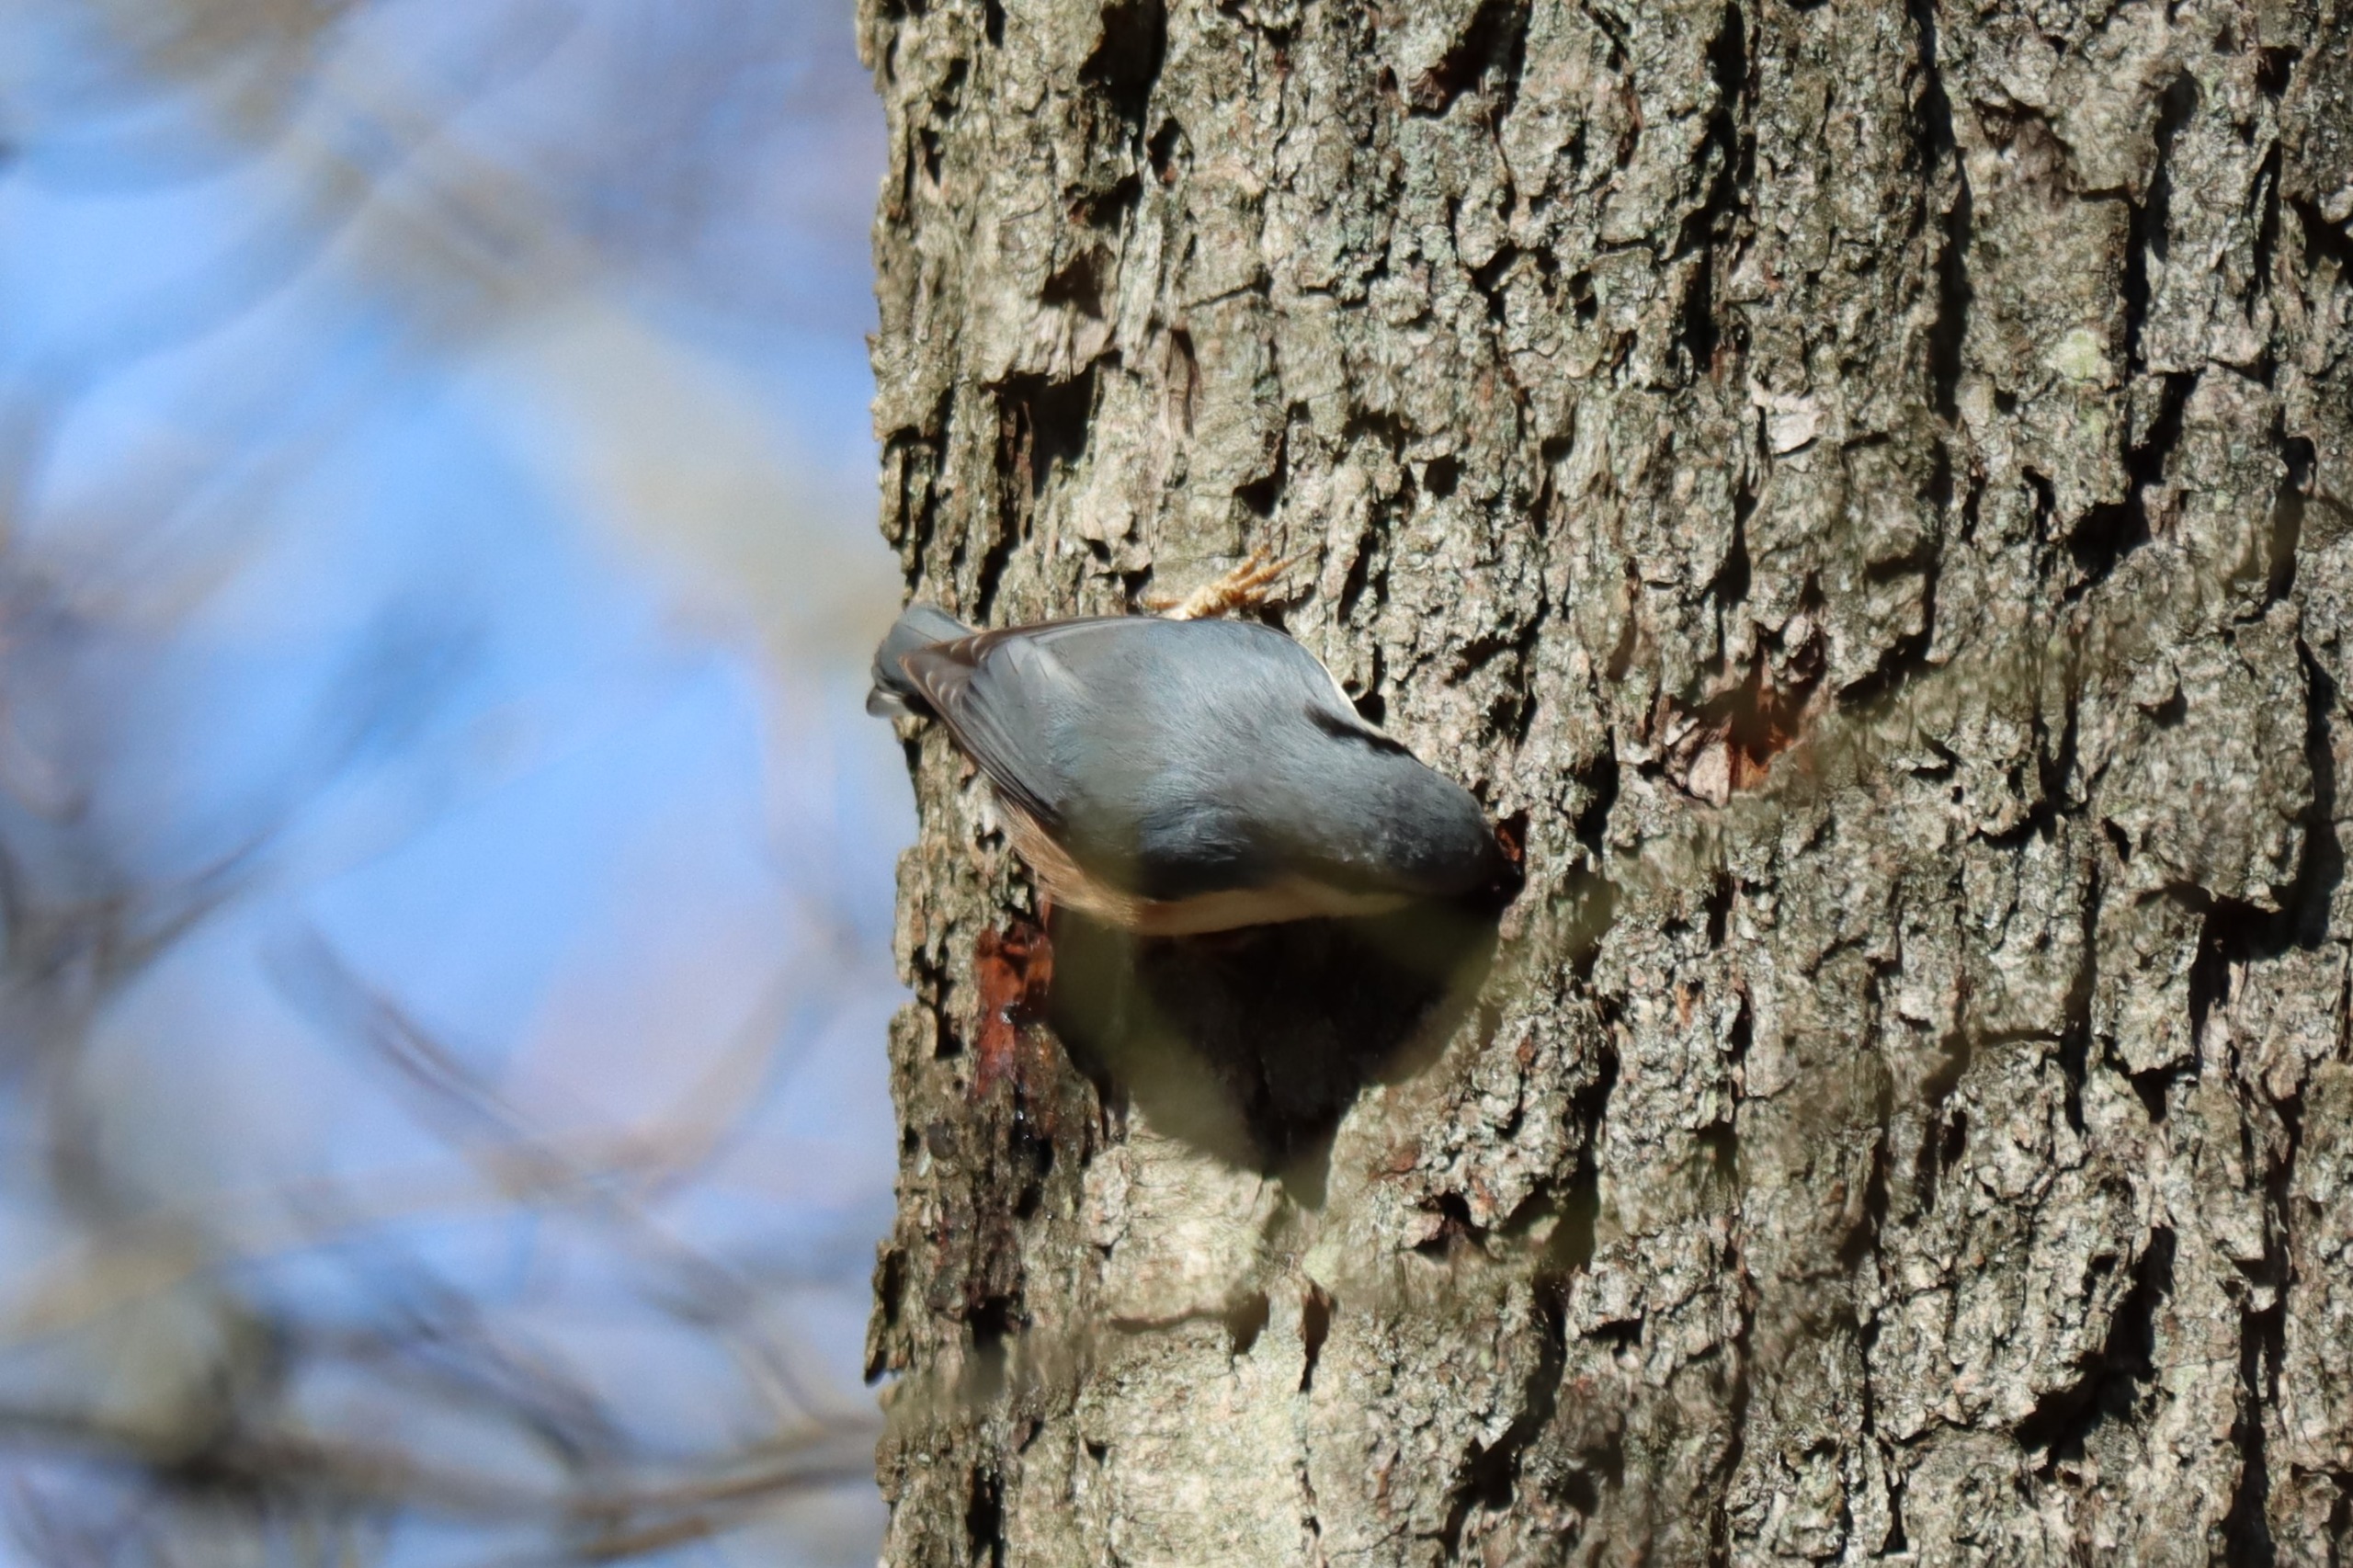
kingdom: Animalia
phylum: Chordata
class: Aves
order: Passeriformes
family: Sittidae
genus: Sitta
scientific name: Sitta europaea
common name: Spætmejse
